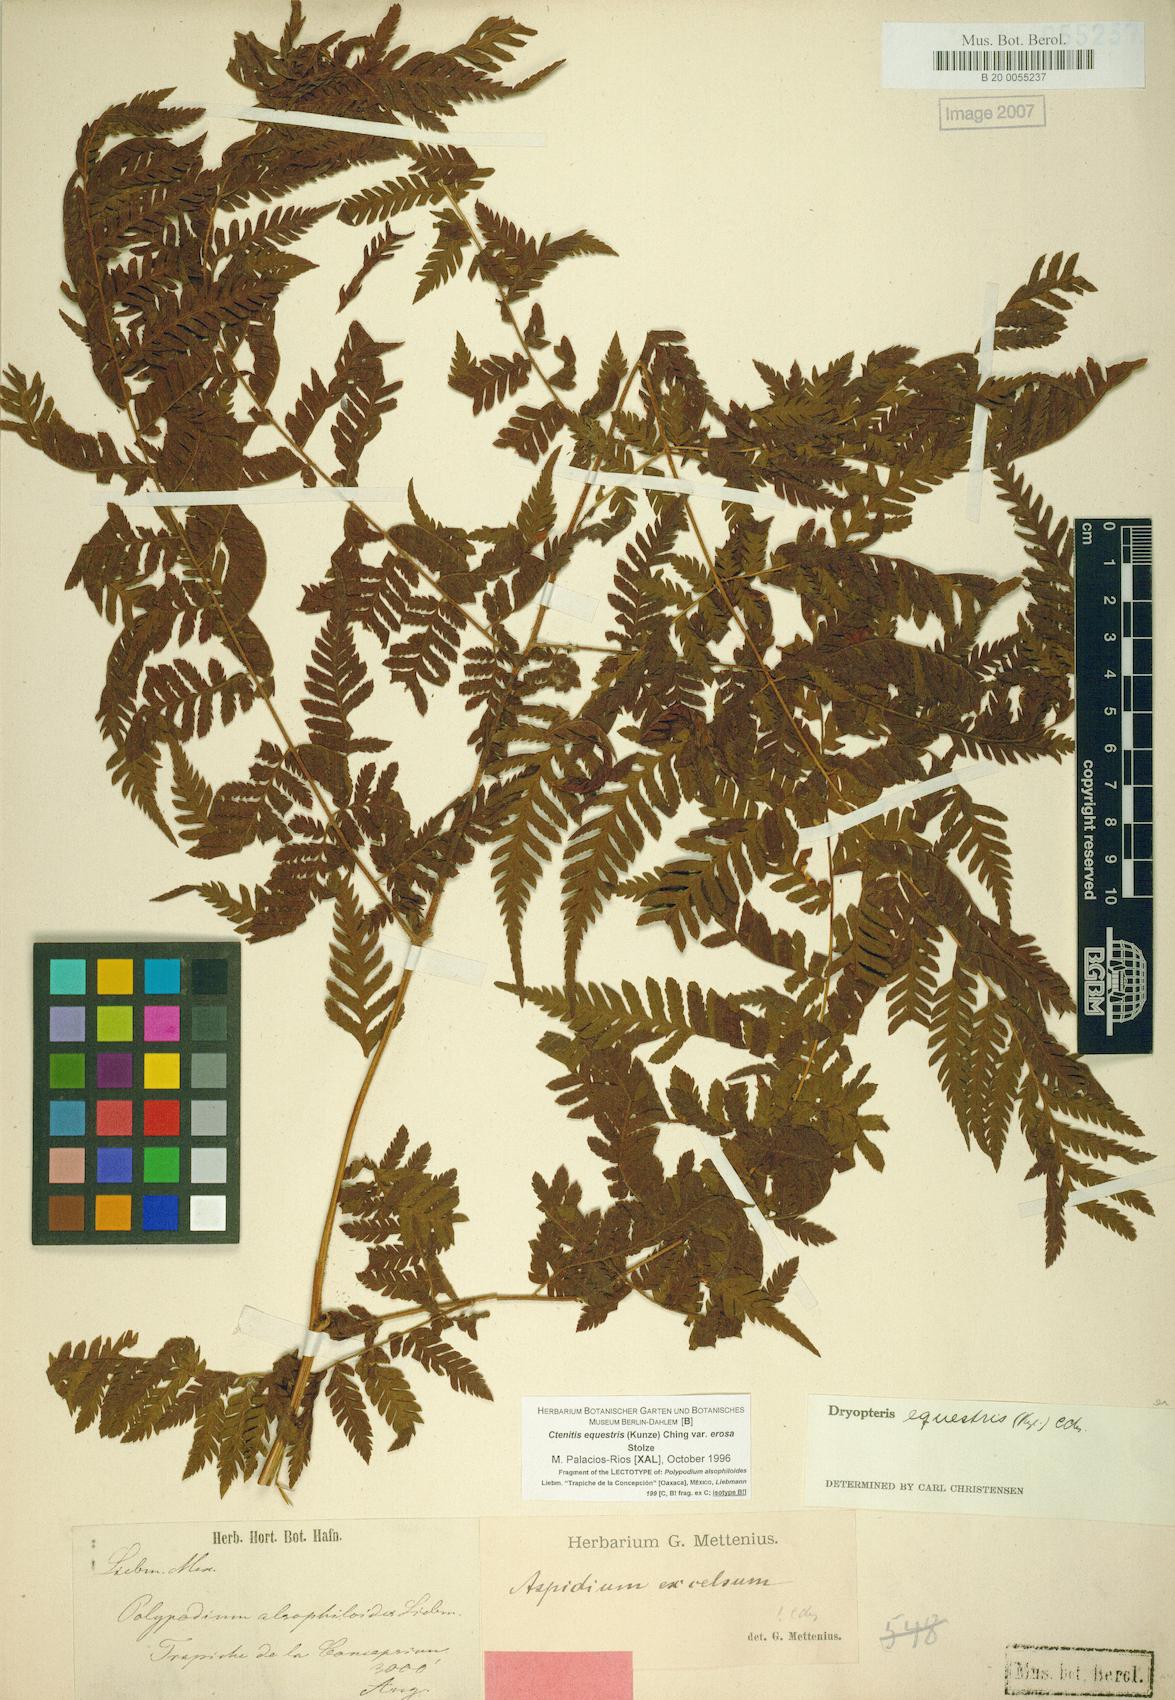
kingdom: Plantae
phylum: Tracheophyta
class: Polypodiopsida
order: Polypodiales
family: Dryopteridaceae
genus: Ctenitis
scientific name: Ctenitis equestris
